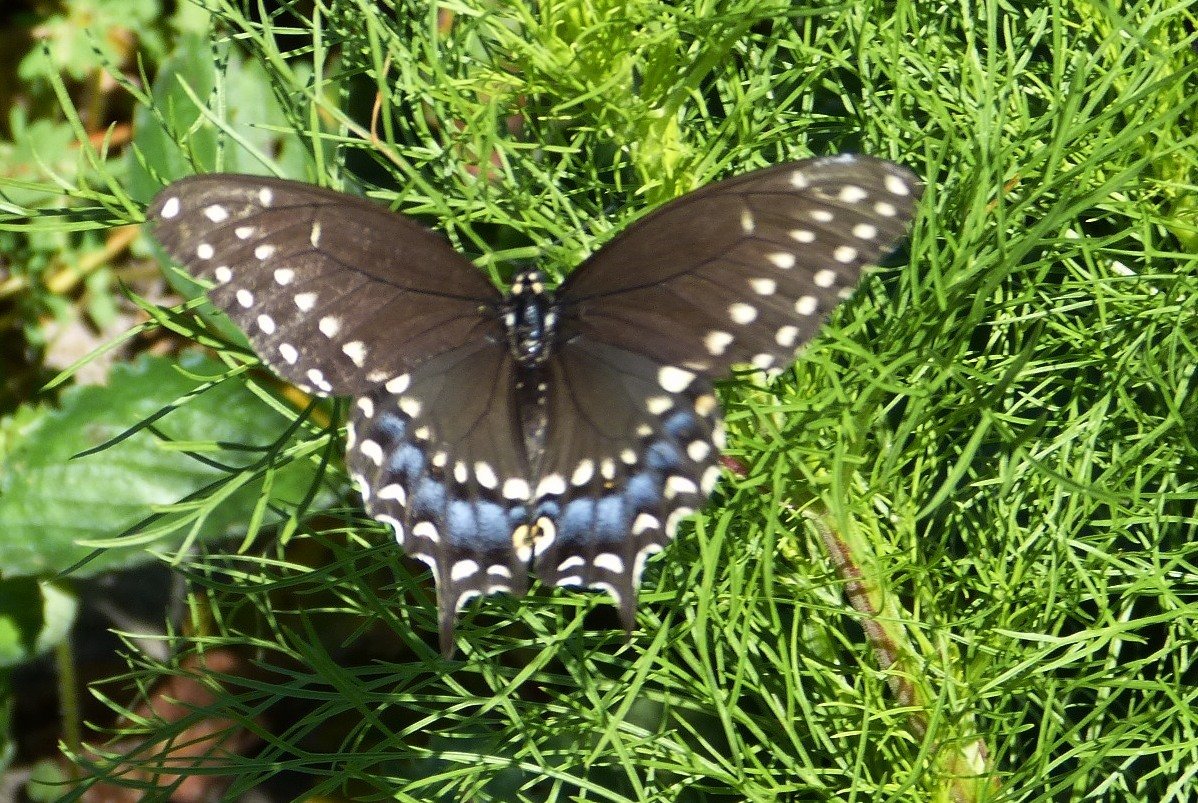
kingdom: Animalia
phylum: Arthropoda
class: Insecta
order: Lepidoptera
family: Papilionidae
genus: Papilio
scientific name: Papilio polyxenes
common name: Black Swallowtail
